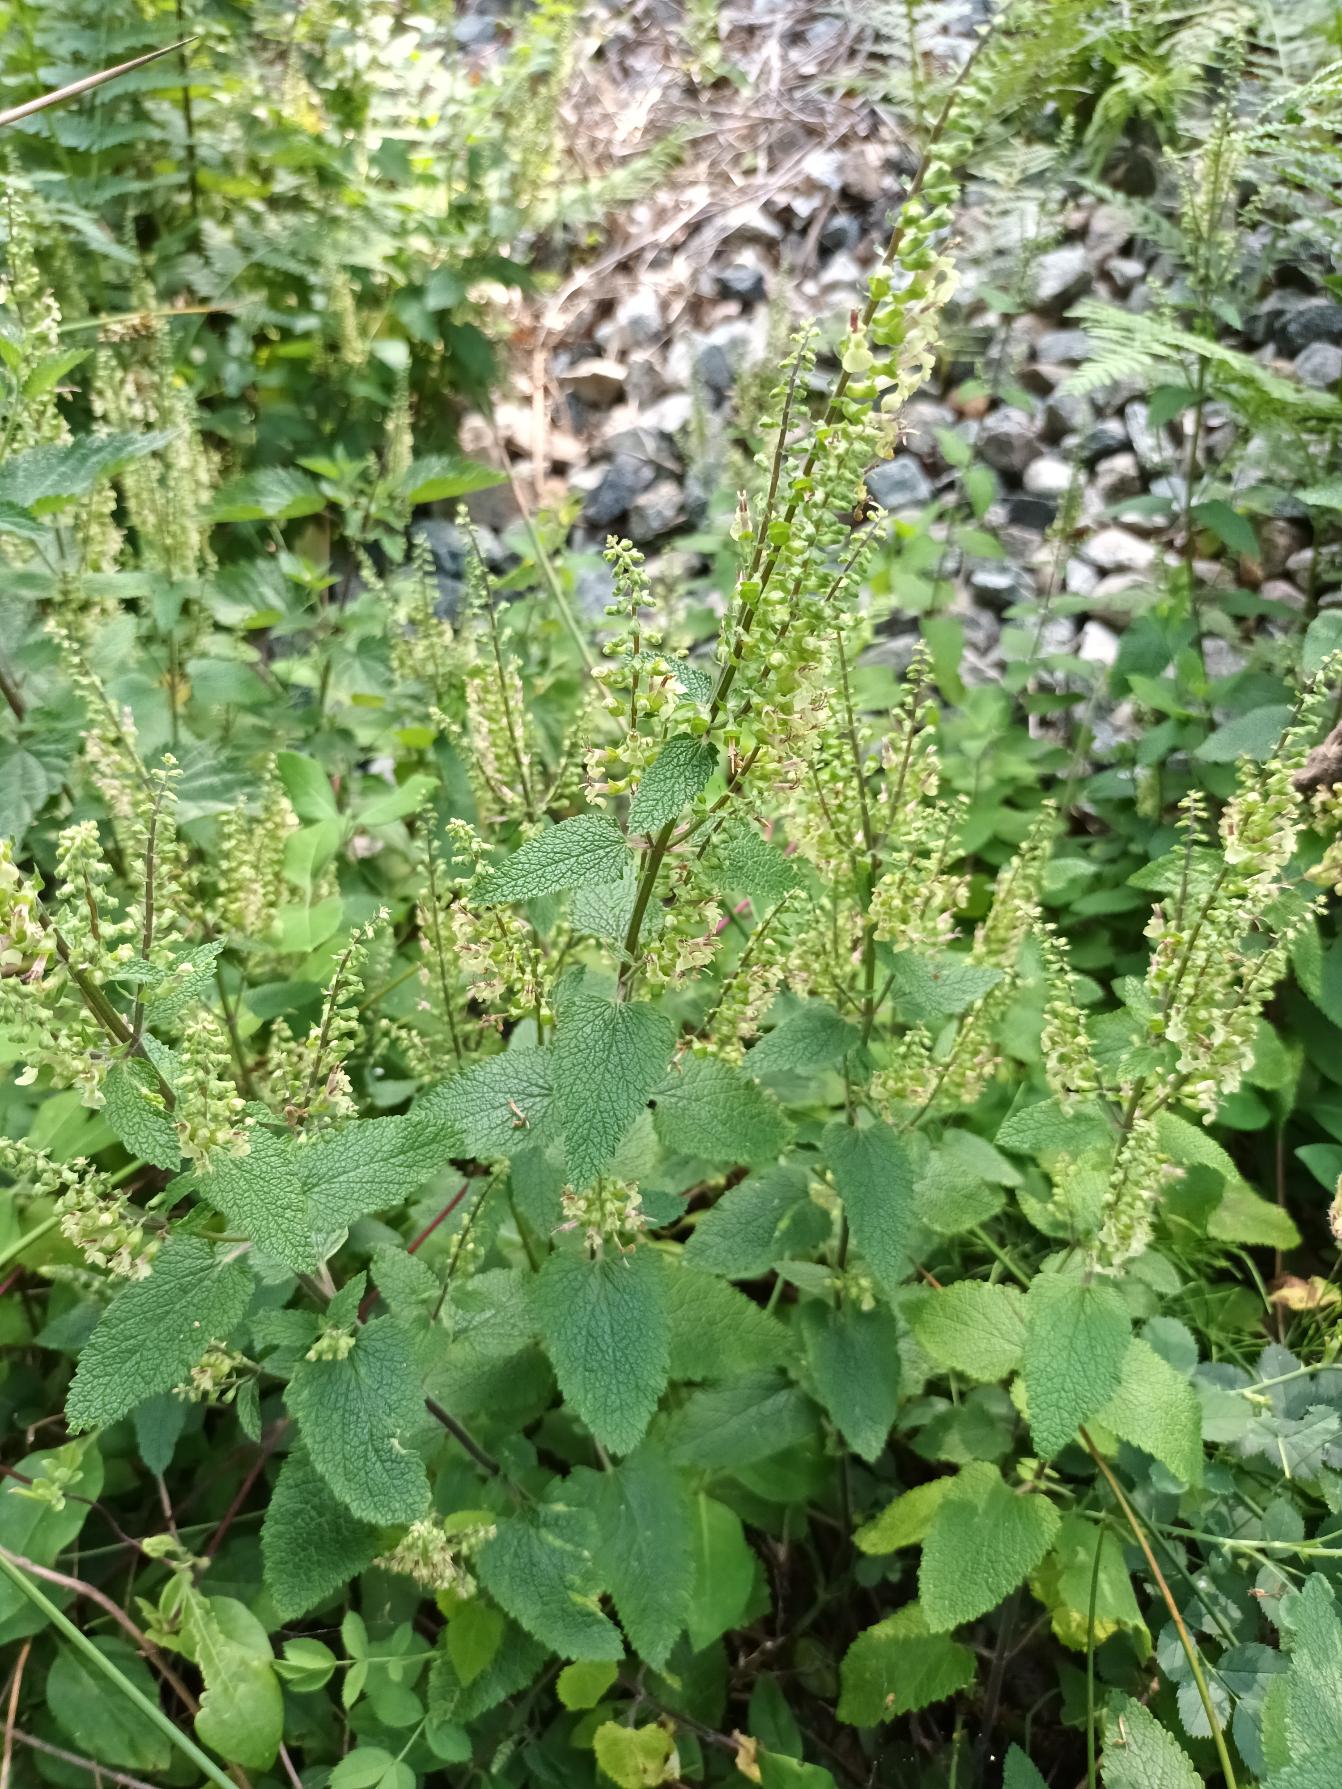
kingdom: Plantae
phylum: Tracheophyta
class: Magnoliopsida
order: Lamiales
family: Lamiaceae
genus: Teucrium
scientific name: Teucrium scorodonia
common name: Klase-kortlæbe
